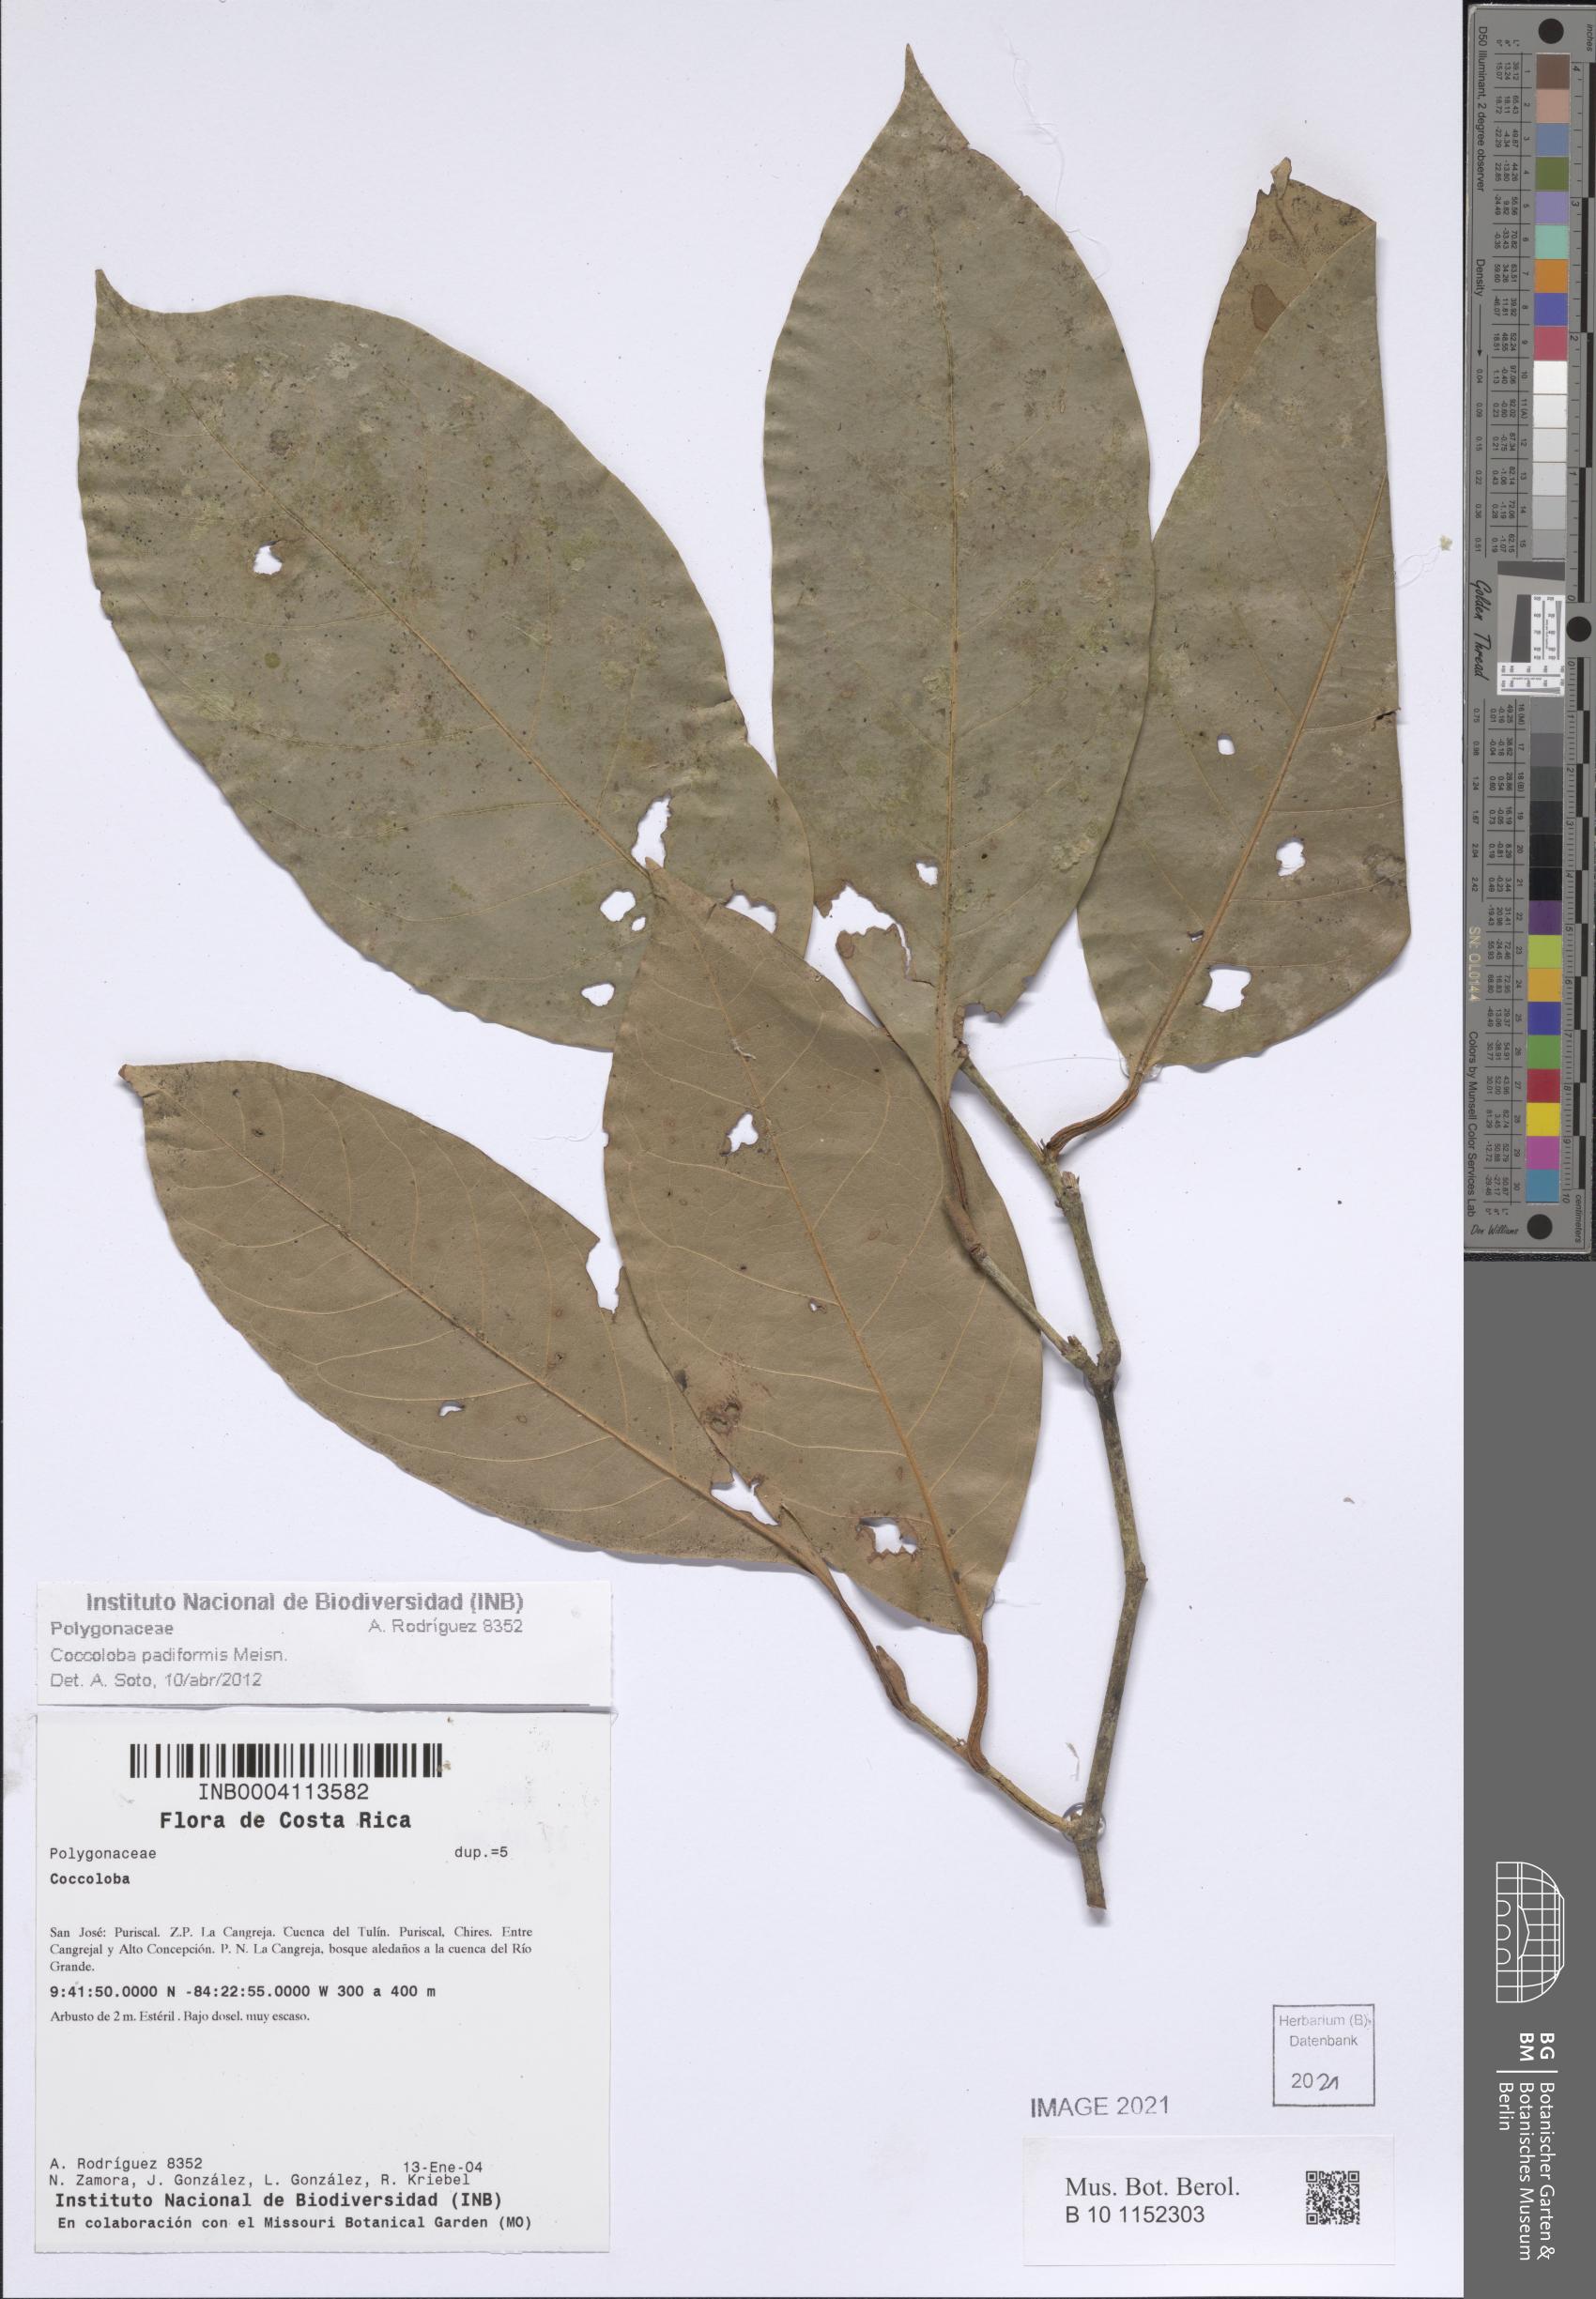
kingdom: Plantae
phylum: Tracheophyta
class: Magnoliopsida
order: Caryophyllales
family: Polygonaceae
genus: Coccoloba
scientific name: Coccoloba padiformis
